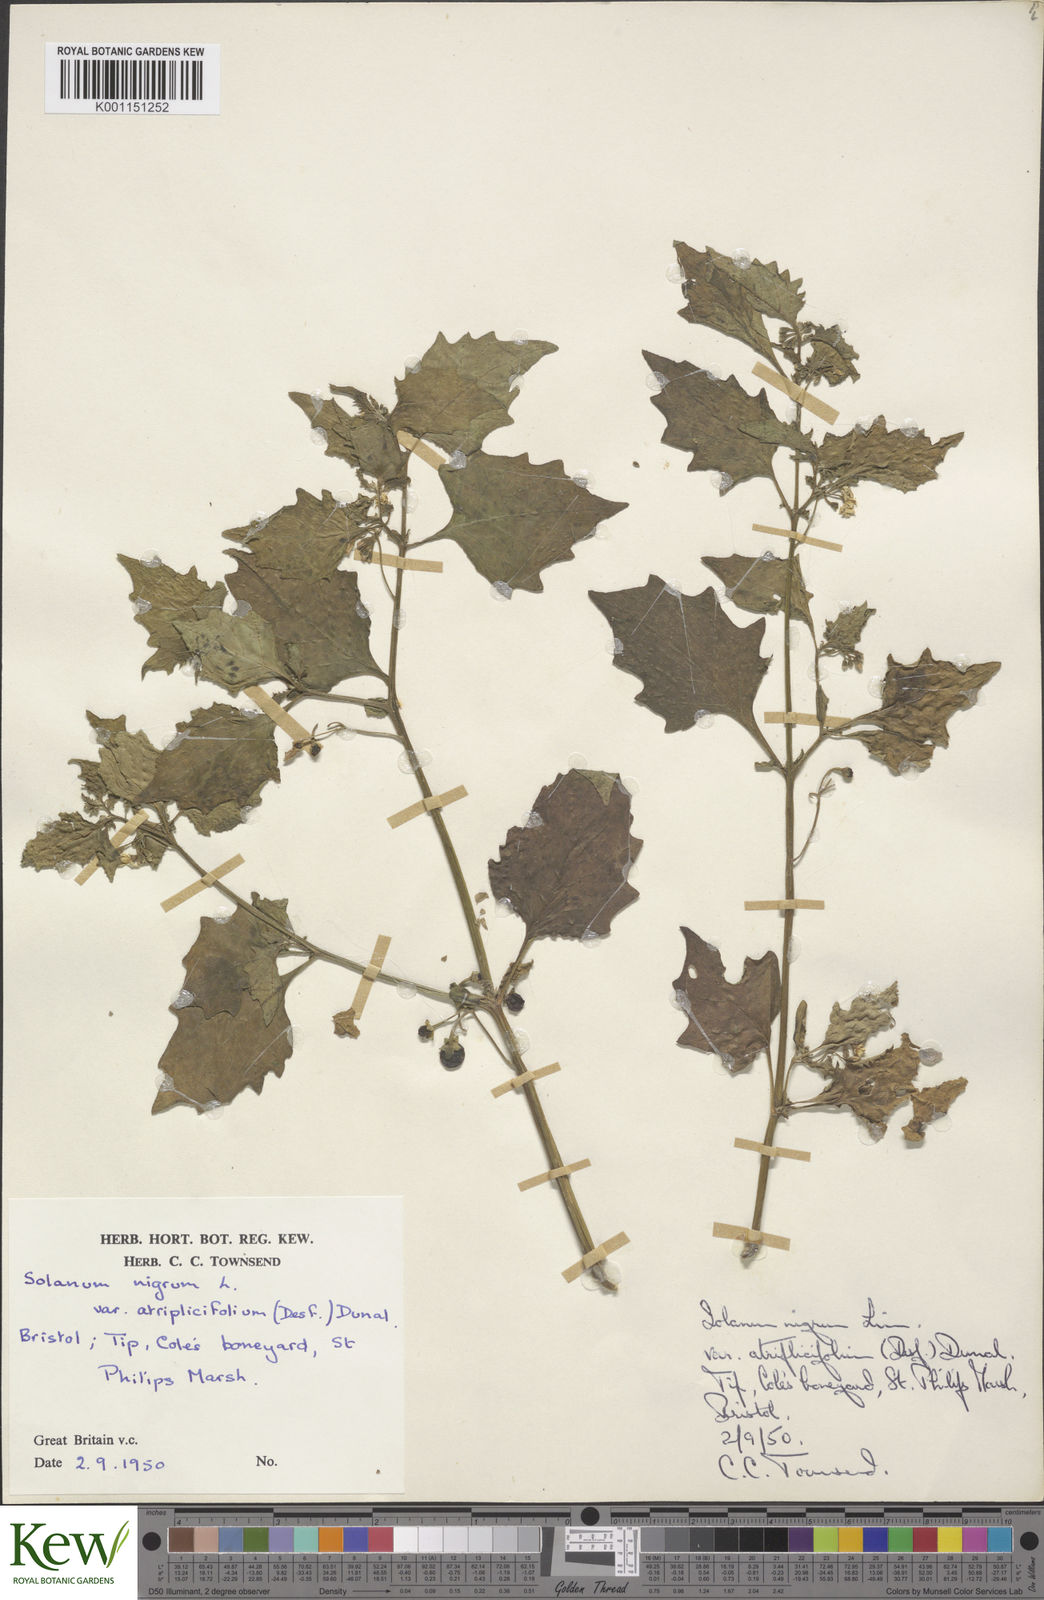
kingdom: Plantae
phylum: Tracheophyta
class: Magnoliopsida
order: Solanales
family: Solanaceae
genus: Solanum
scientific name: Solanum nigrum
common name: Black nightshade
